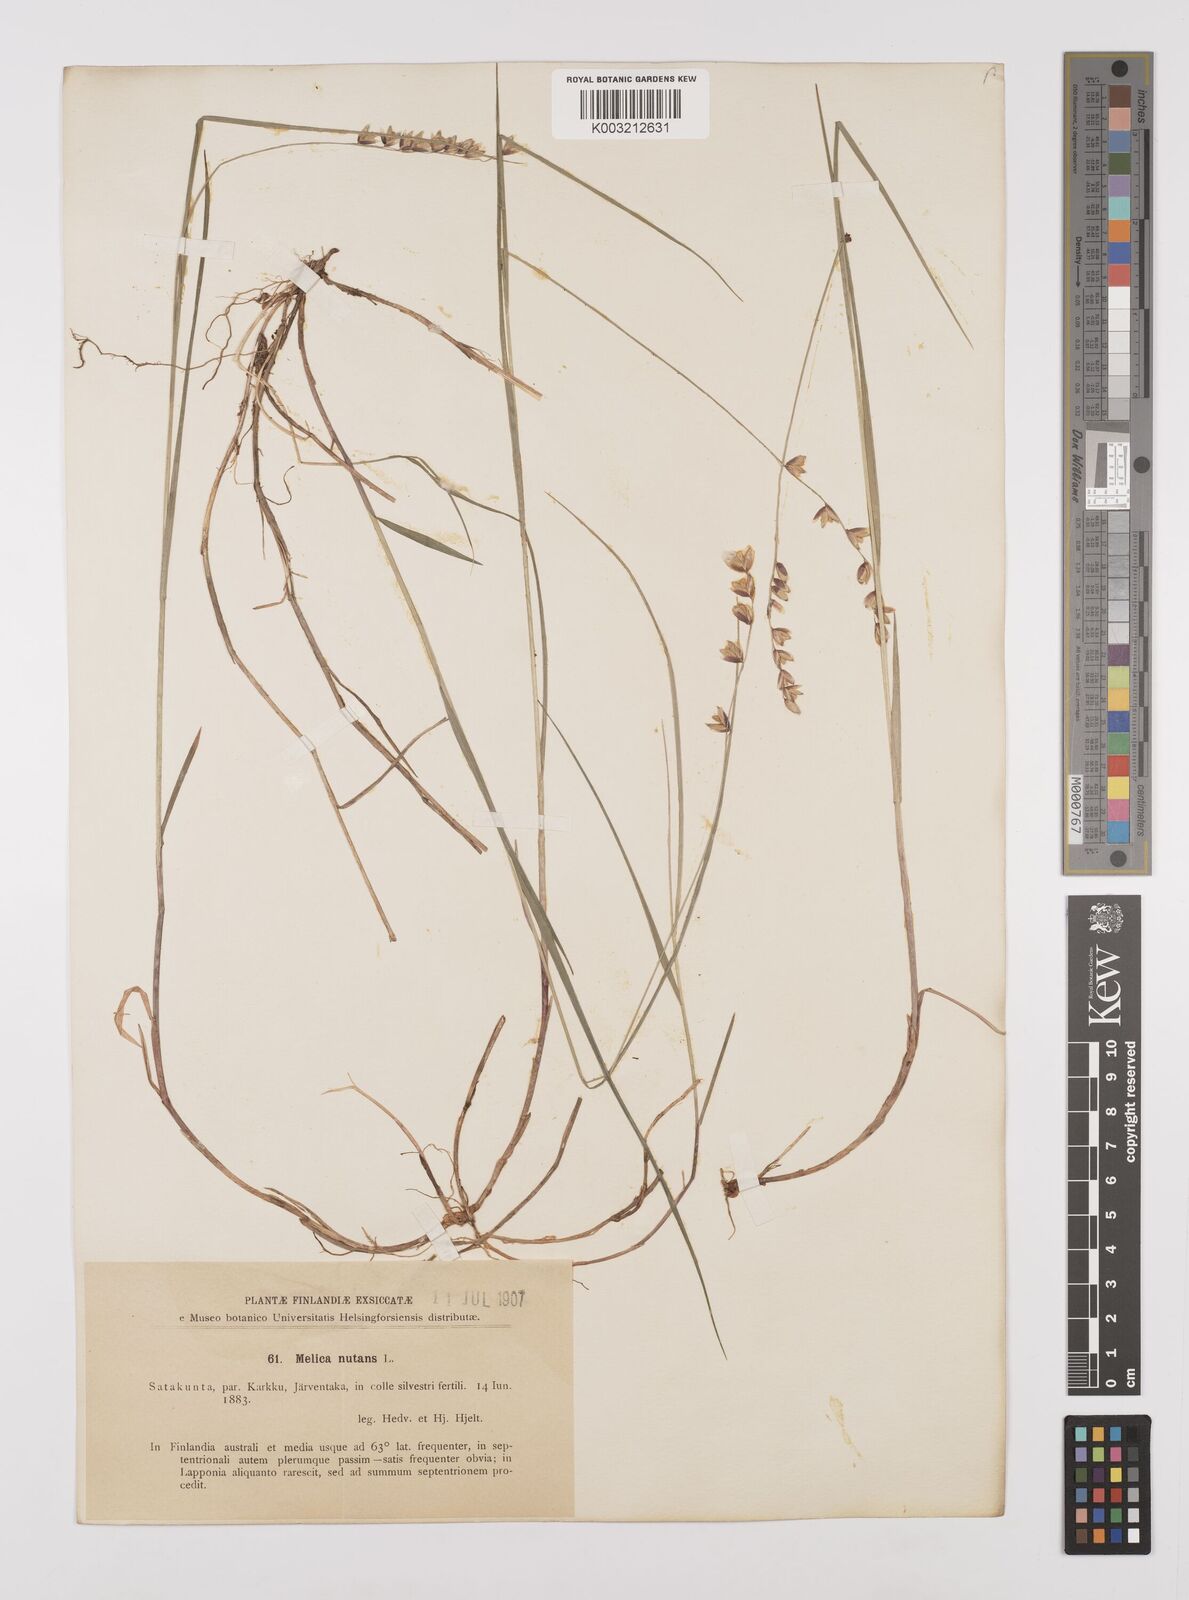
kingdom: Plantae
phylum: Tracheophyta
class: Liliopsida
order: Poales
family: Poaceae
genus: Melica
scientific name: Melica
